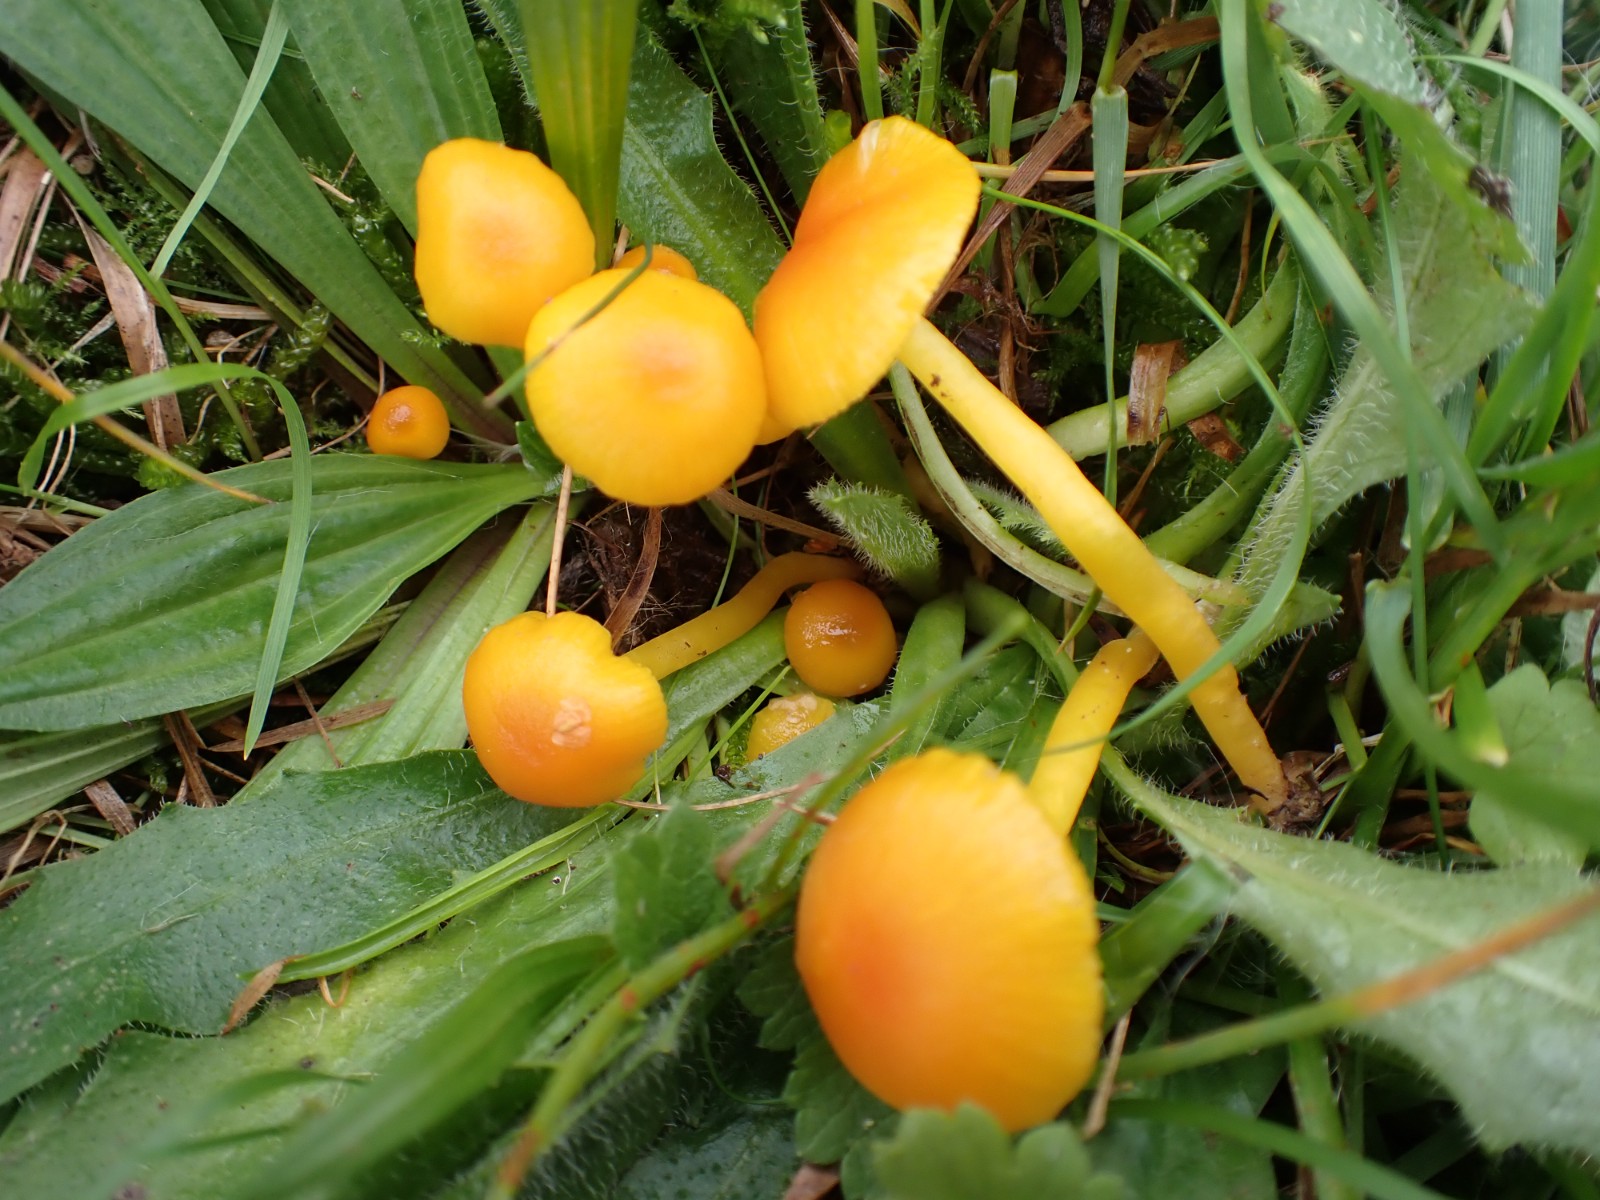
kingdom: Fungi
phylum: Basidiomycota
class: Agaricomycetes
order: Agaricales
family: Hygrophoraceae
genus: Hygrocybe
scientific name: Hygrocybe ceracea
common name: voksgul vokshat
